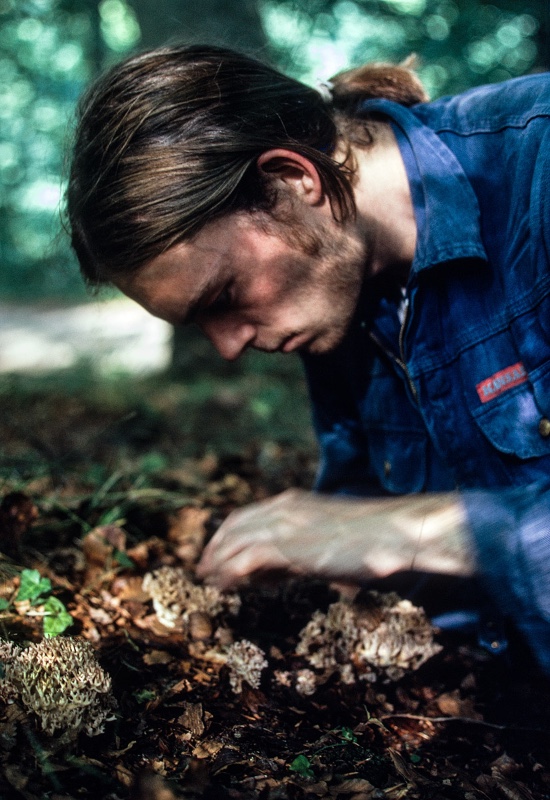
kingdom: Fungi
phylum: Basidiomycota
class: Agaricomycetes
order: Gomphales
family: Gomphaceae
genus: Ramaria
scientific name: Ramaria botrytis
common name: drue-koralsvamp
